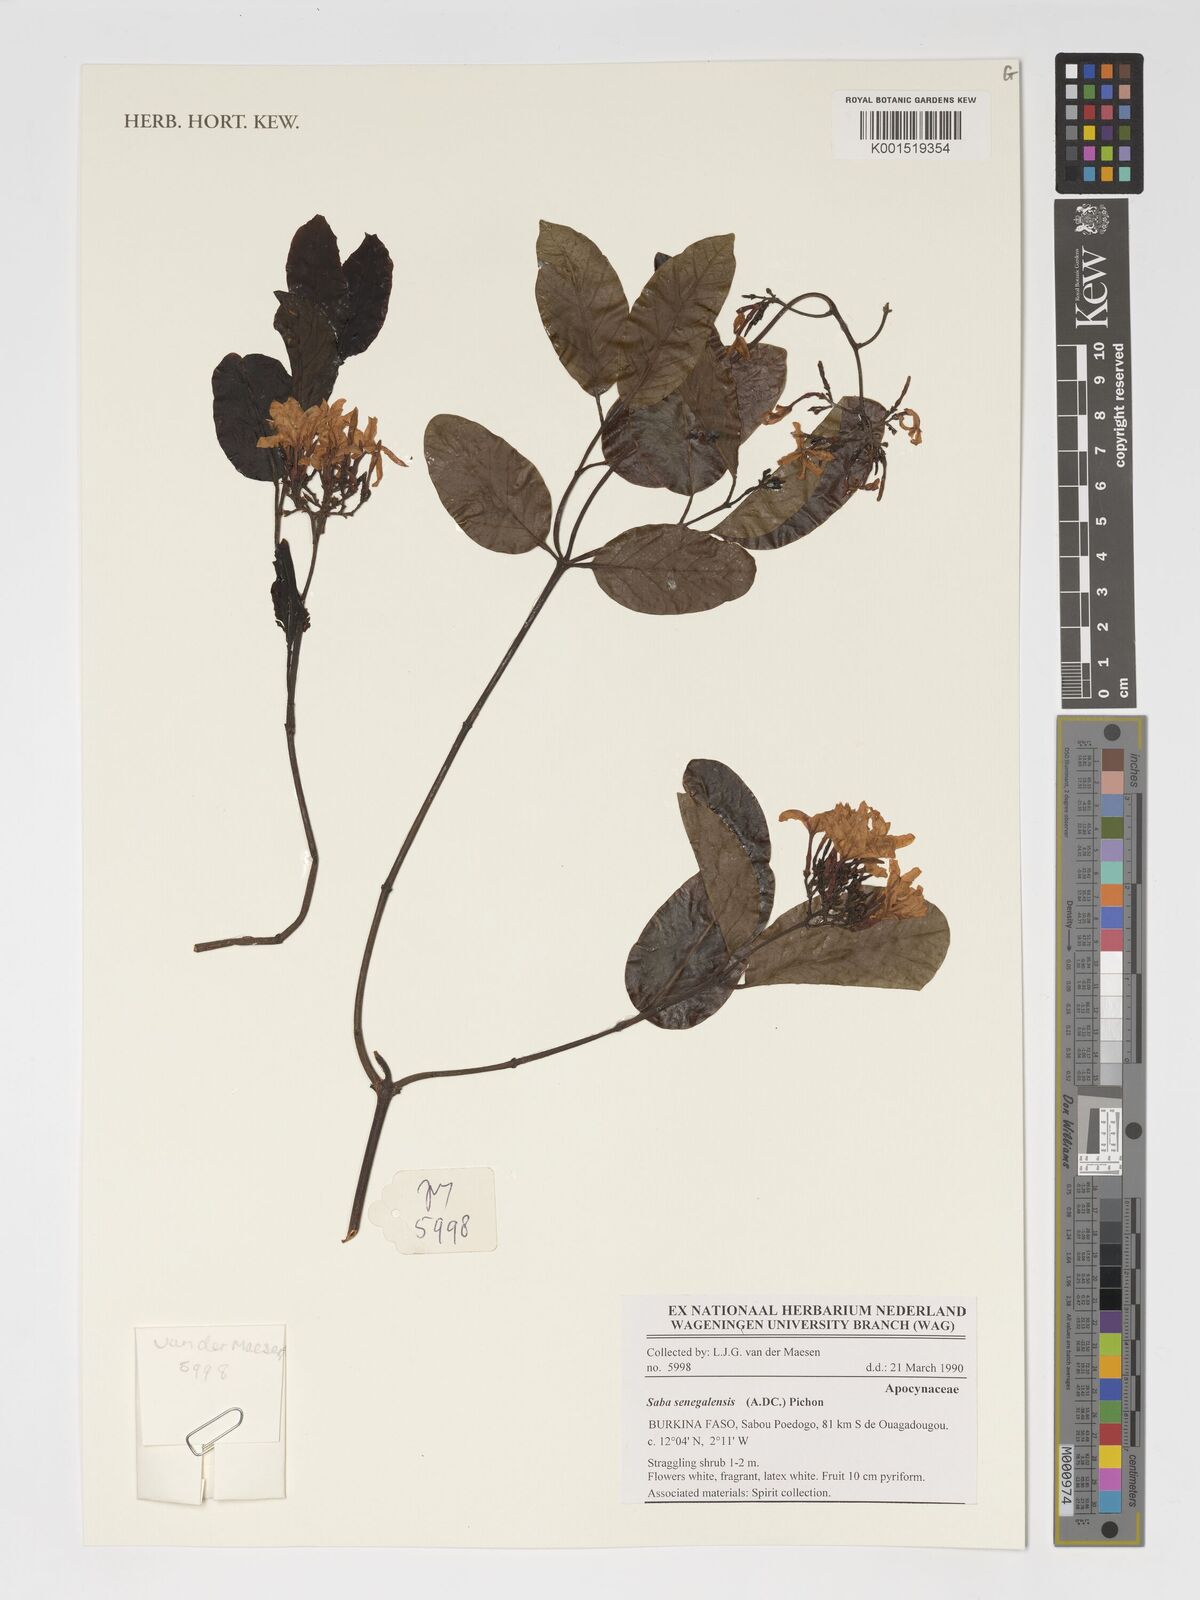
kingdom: Plantae
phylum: Tracheophyta
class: Magnoliopsida
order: Gentianales
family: Apocynaceae
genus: Saba
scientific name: Saba senegalensis
